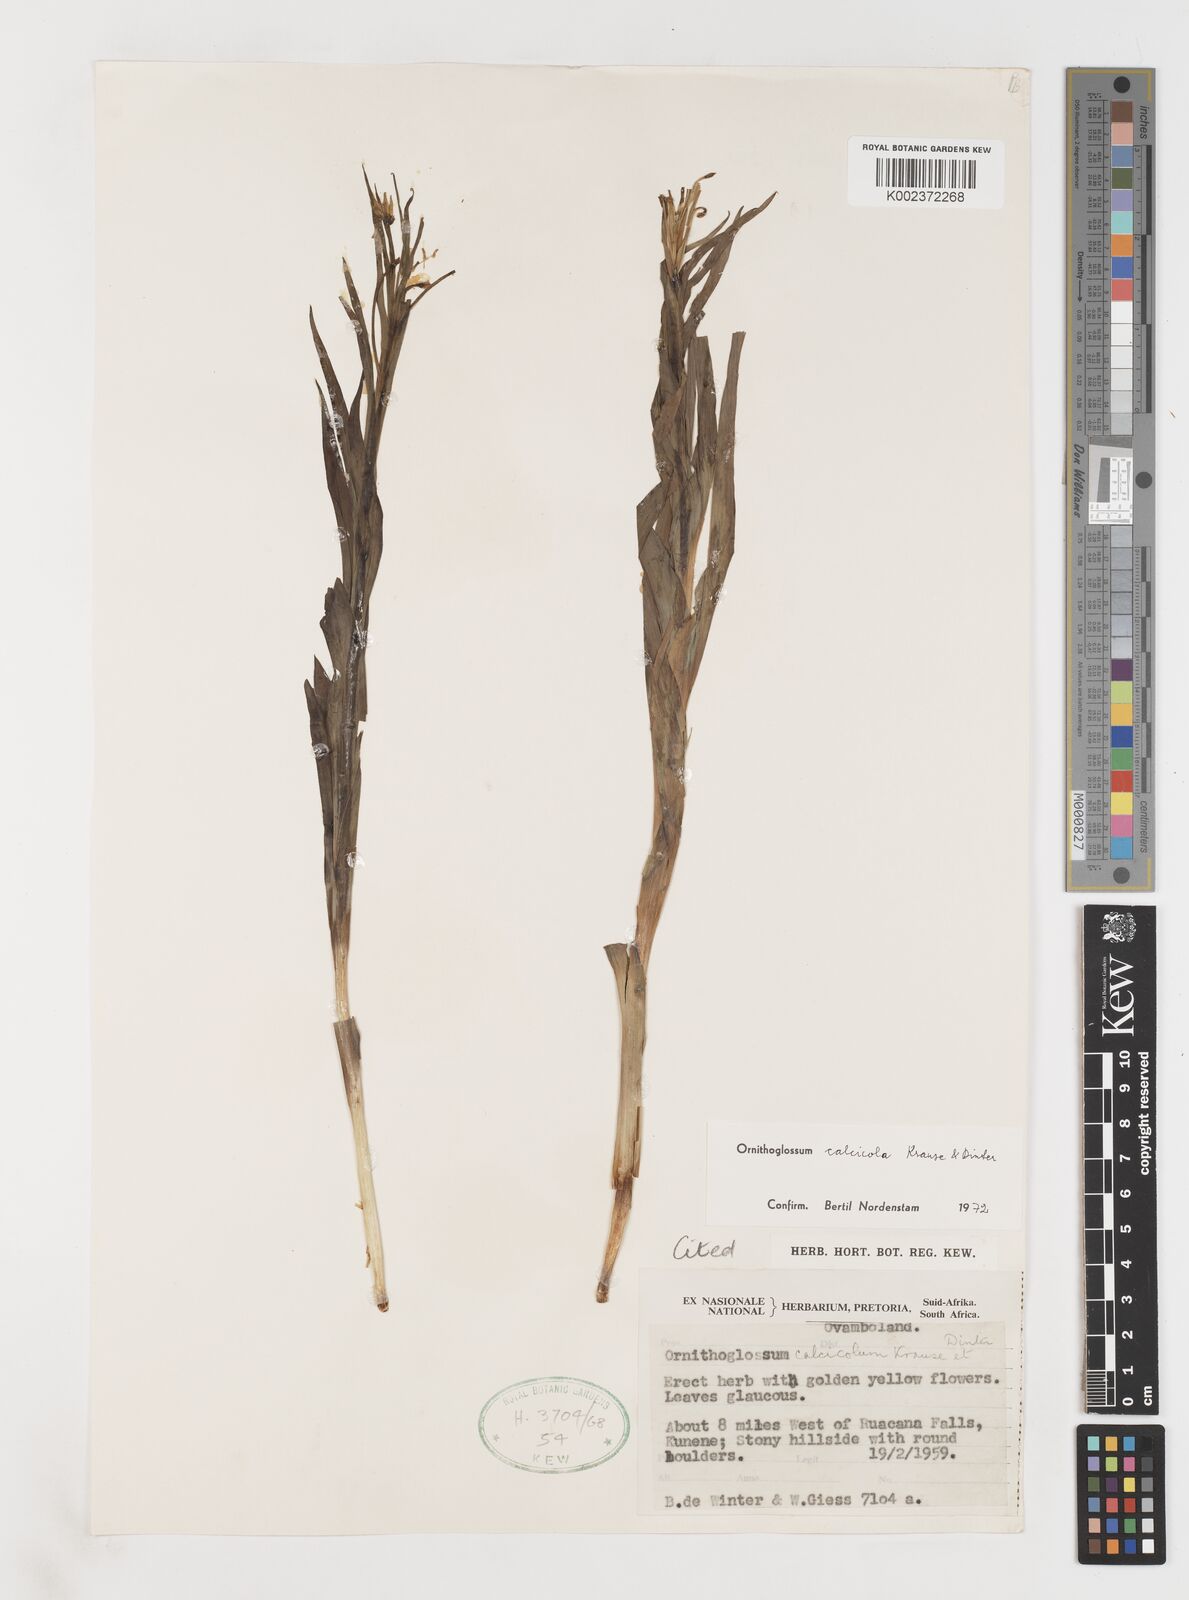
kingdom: Plantae
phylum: Tracheophyta
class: Liliopsida
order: Liliales
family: Colchicaceae
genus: Ornithoglossum
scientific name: Ornithoglossum calcicola
